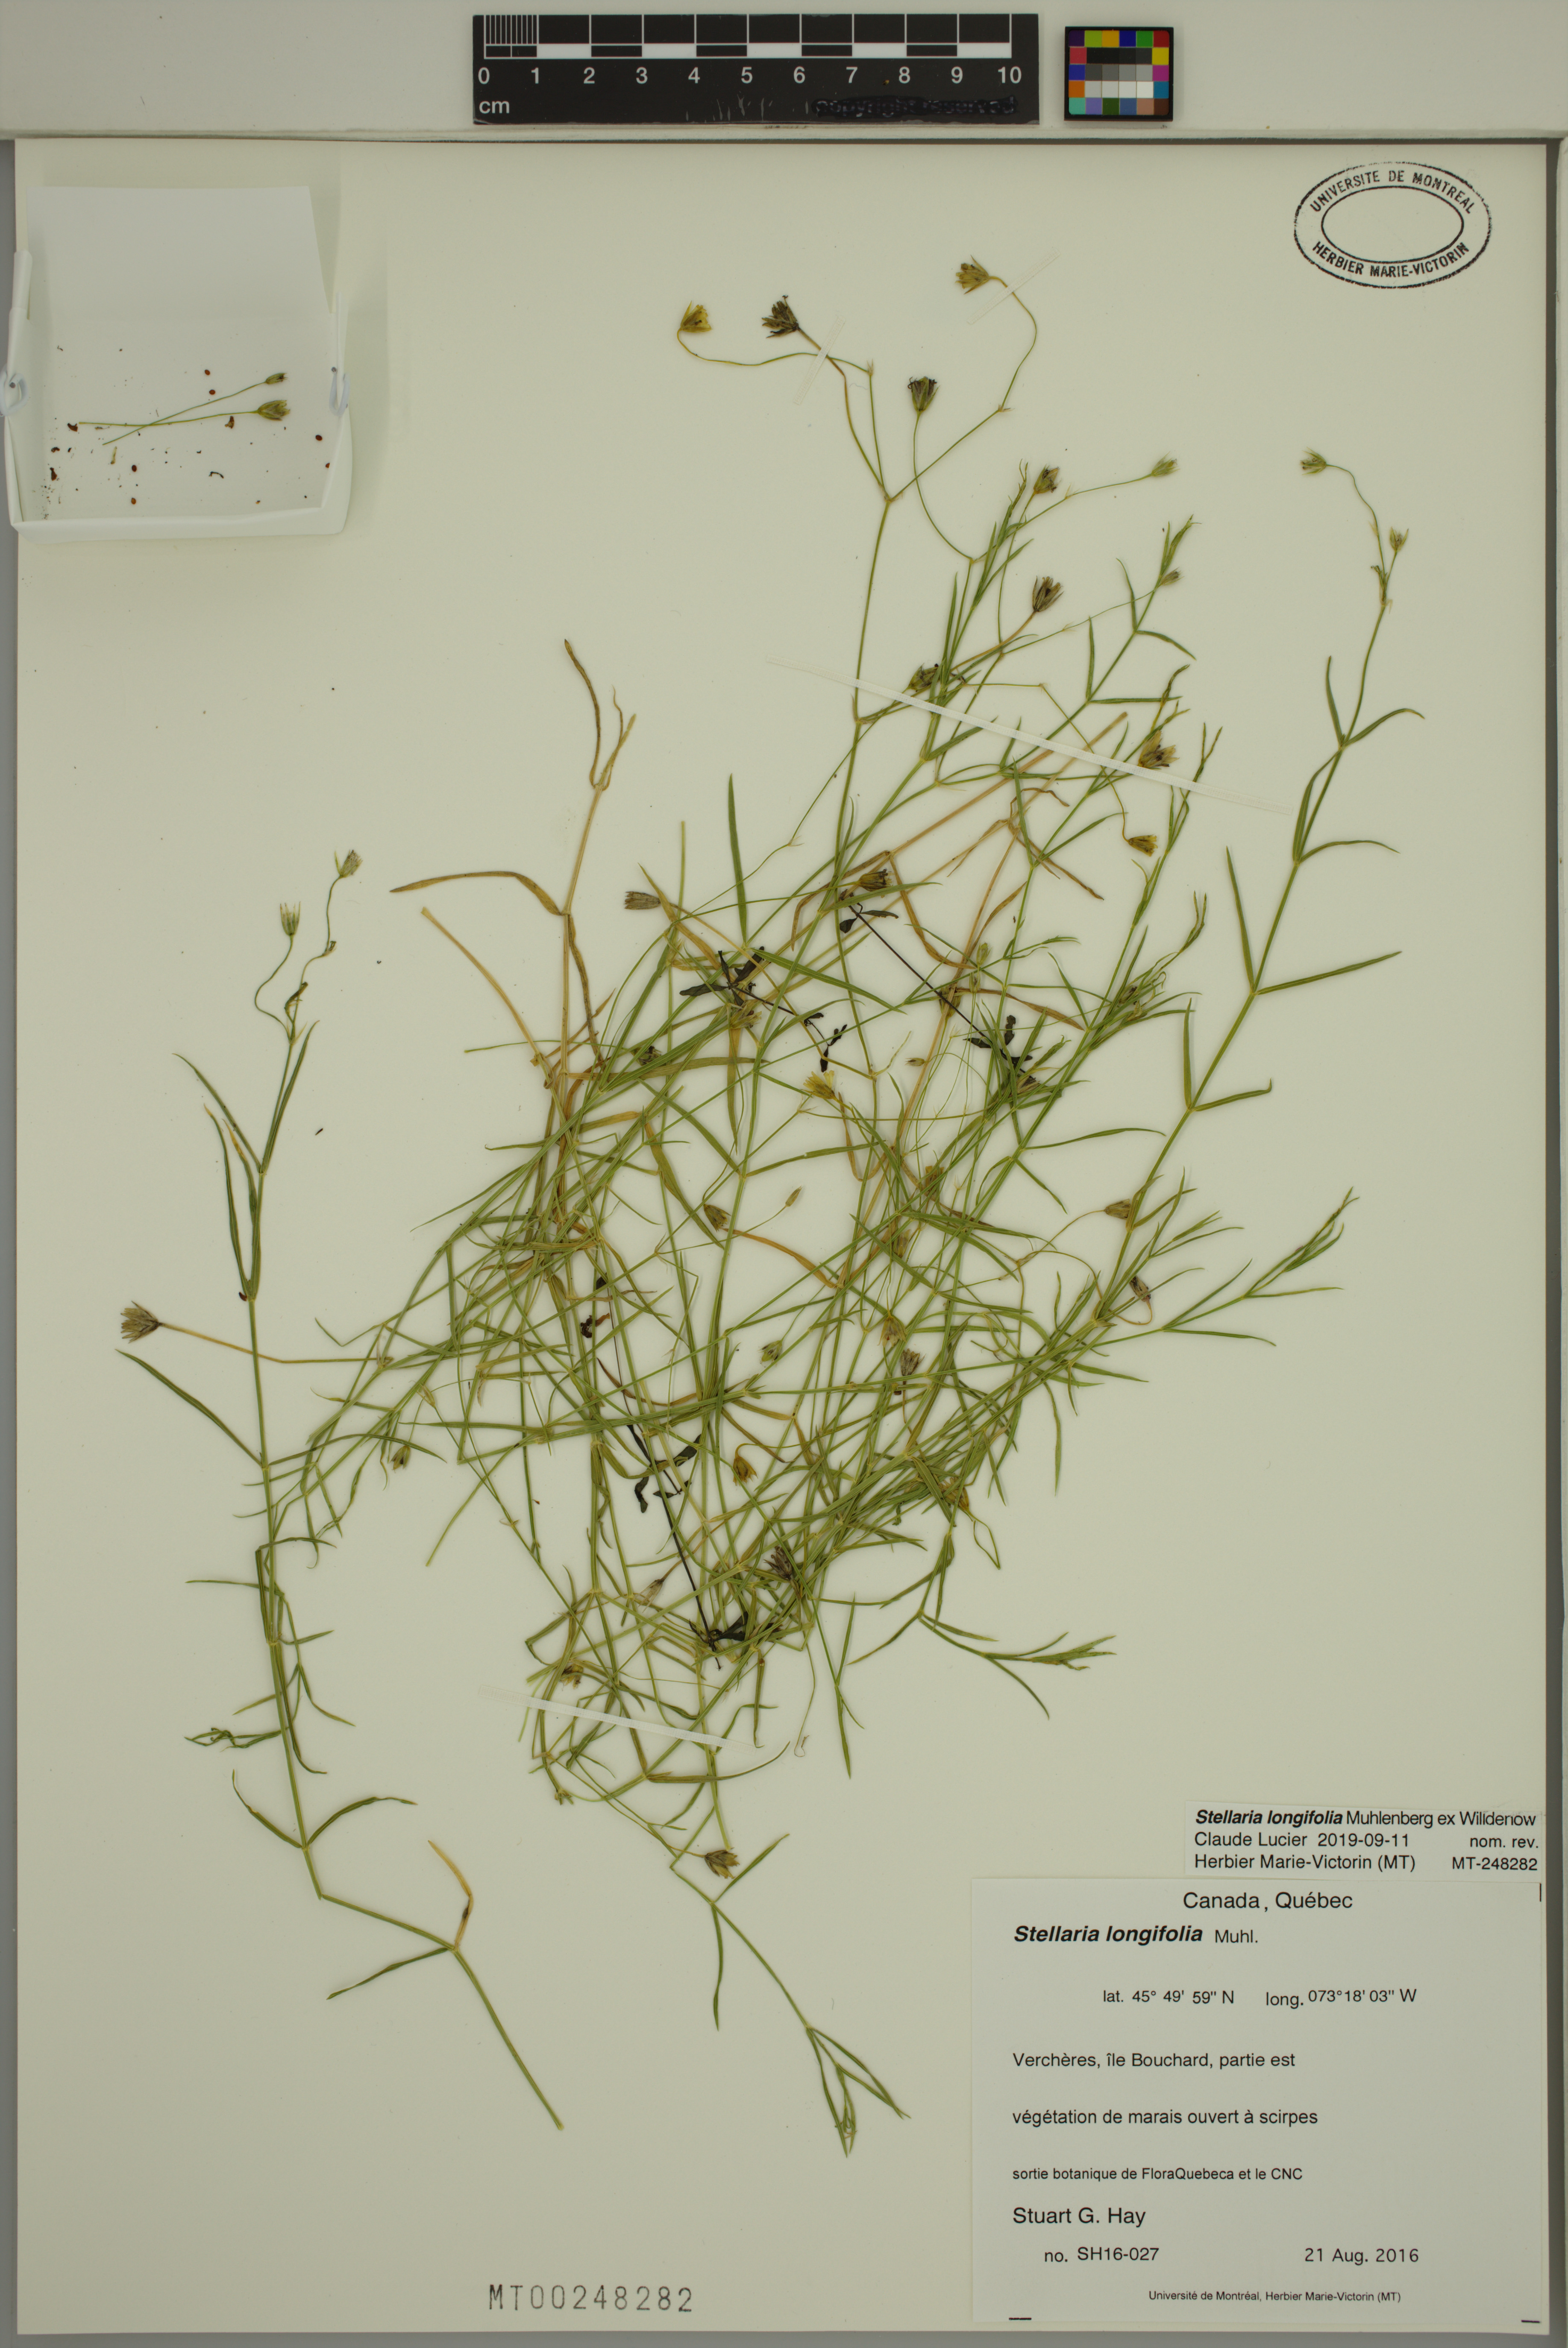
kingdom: Plantae
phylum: Tracheophyta
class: Magnoliopsida
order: Caryophyllales
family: Caryophyllaceae
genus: Stellaria
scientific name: Stellaria longifolia
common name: Long-leaved chickweed
